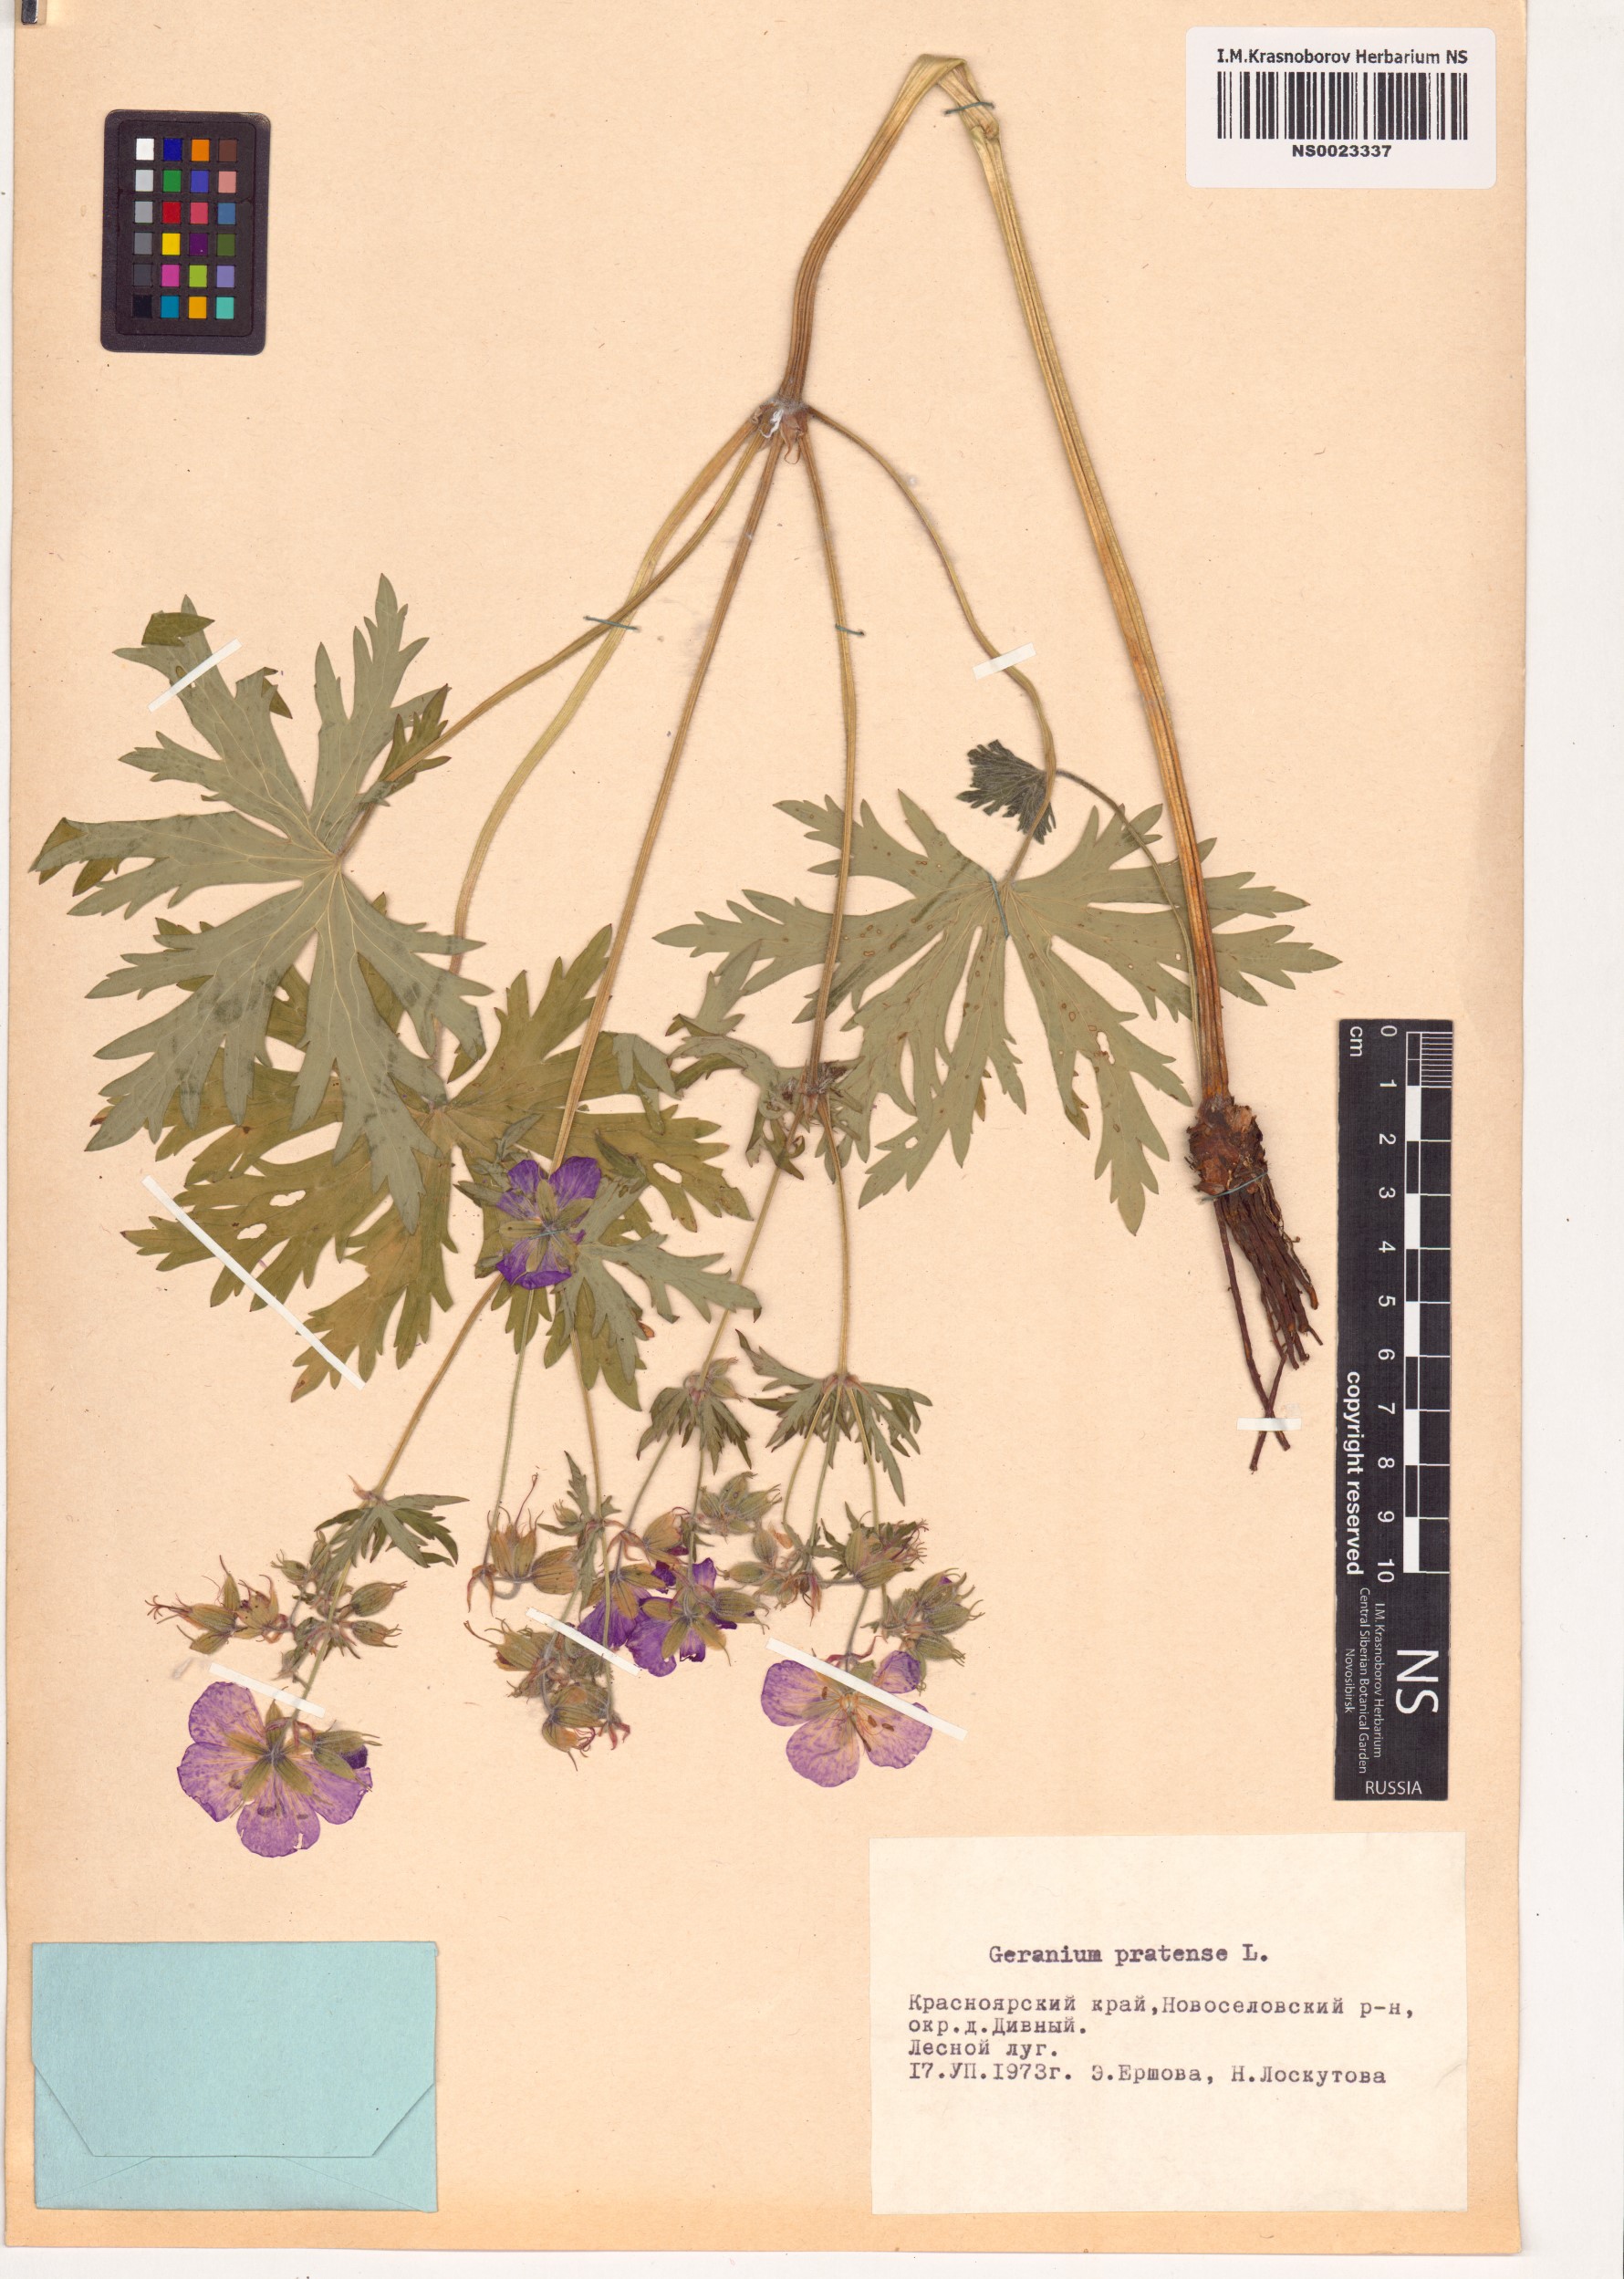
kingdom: Plantae
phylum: Tracheophyta
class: Magnoliopsida
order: Geraniales
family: Geraniaceae
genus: Geranium
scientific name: Geranium pratense
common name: Meadow crane's-bill
